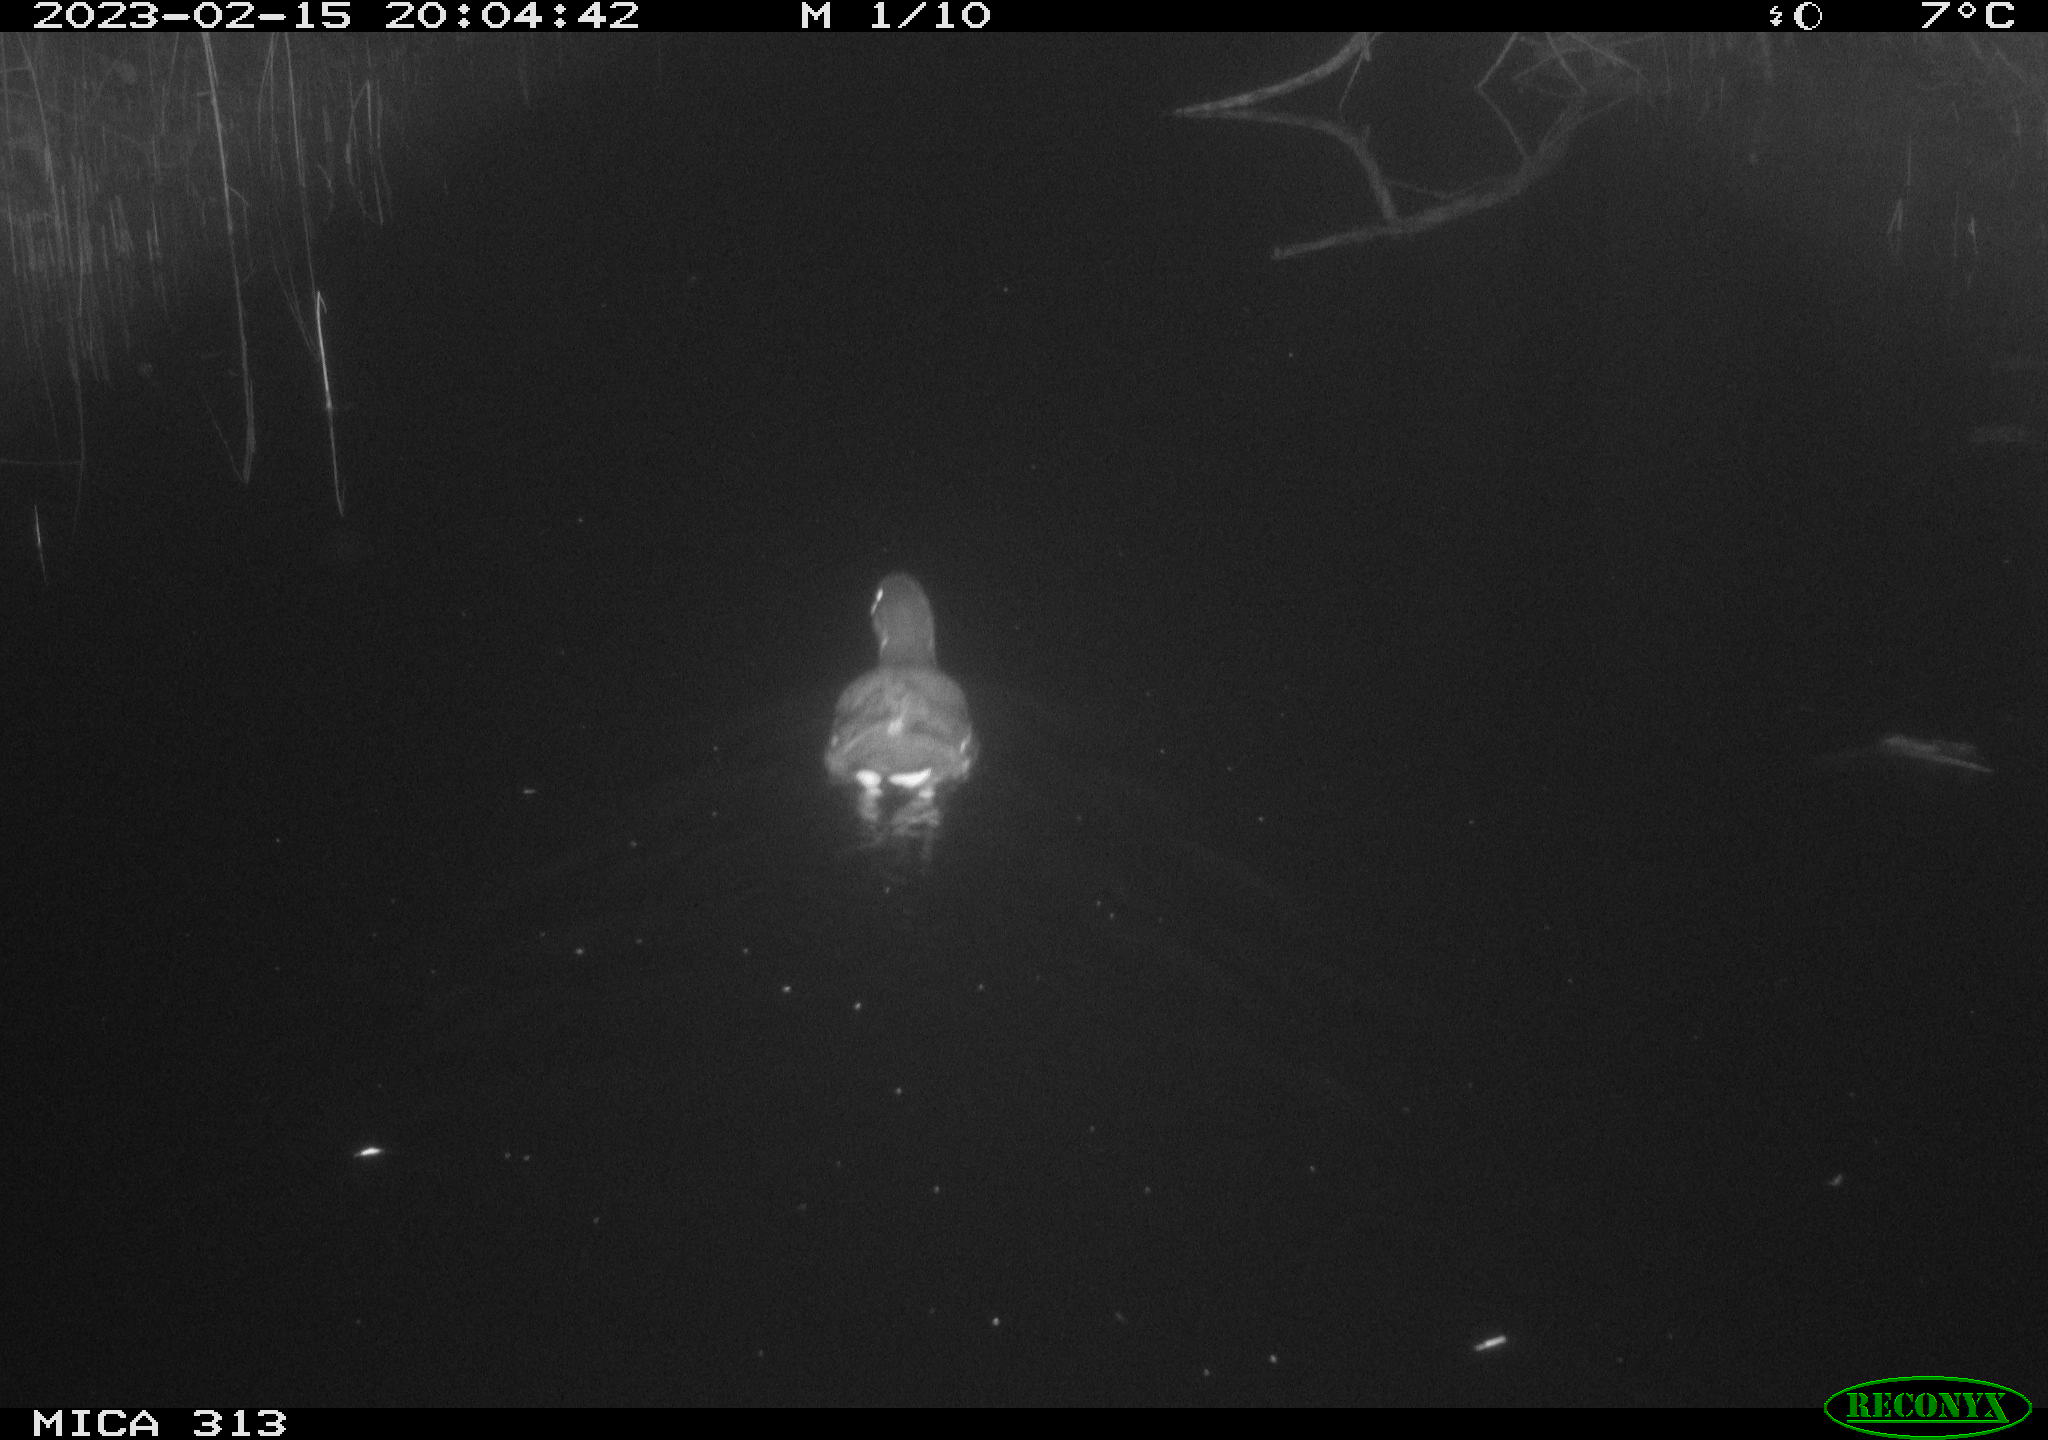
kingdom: Animalia
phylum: Chordata
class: Aves
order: Gruiformes
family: Rallidae
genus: Gallinula
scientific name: Gallinula chloropus
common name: Common moorhen
